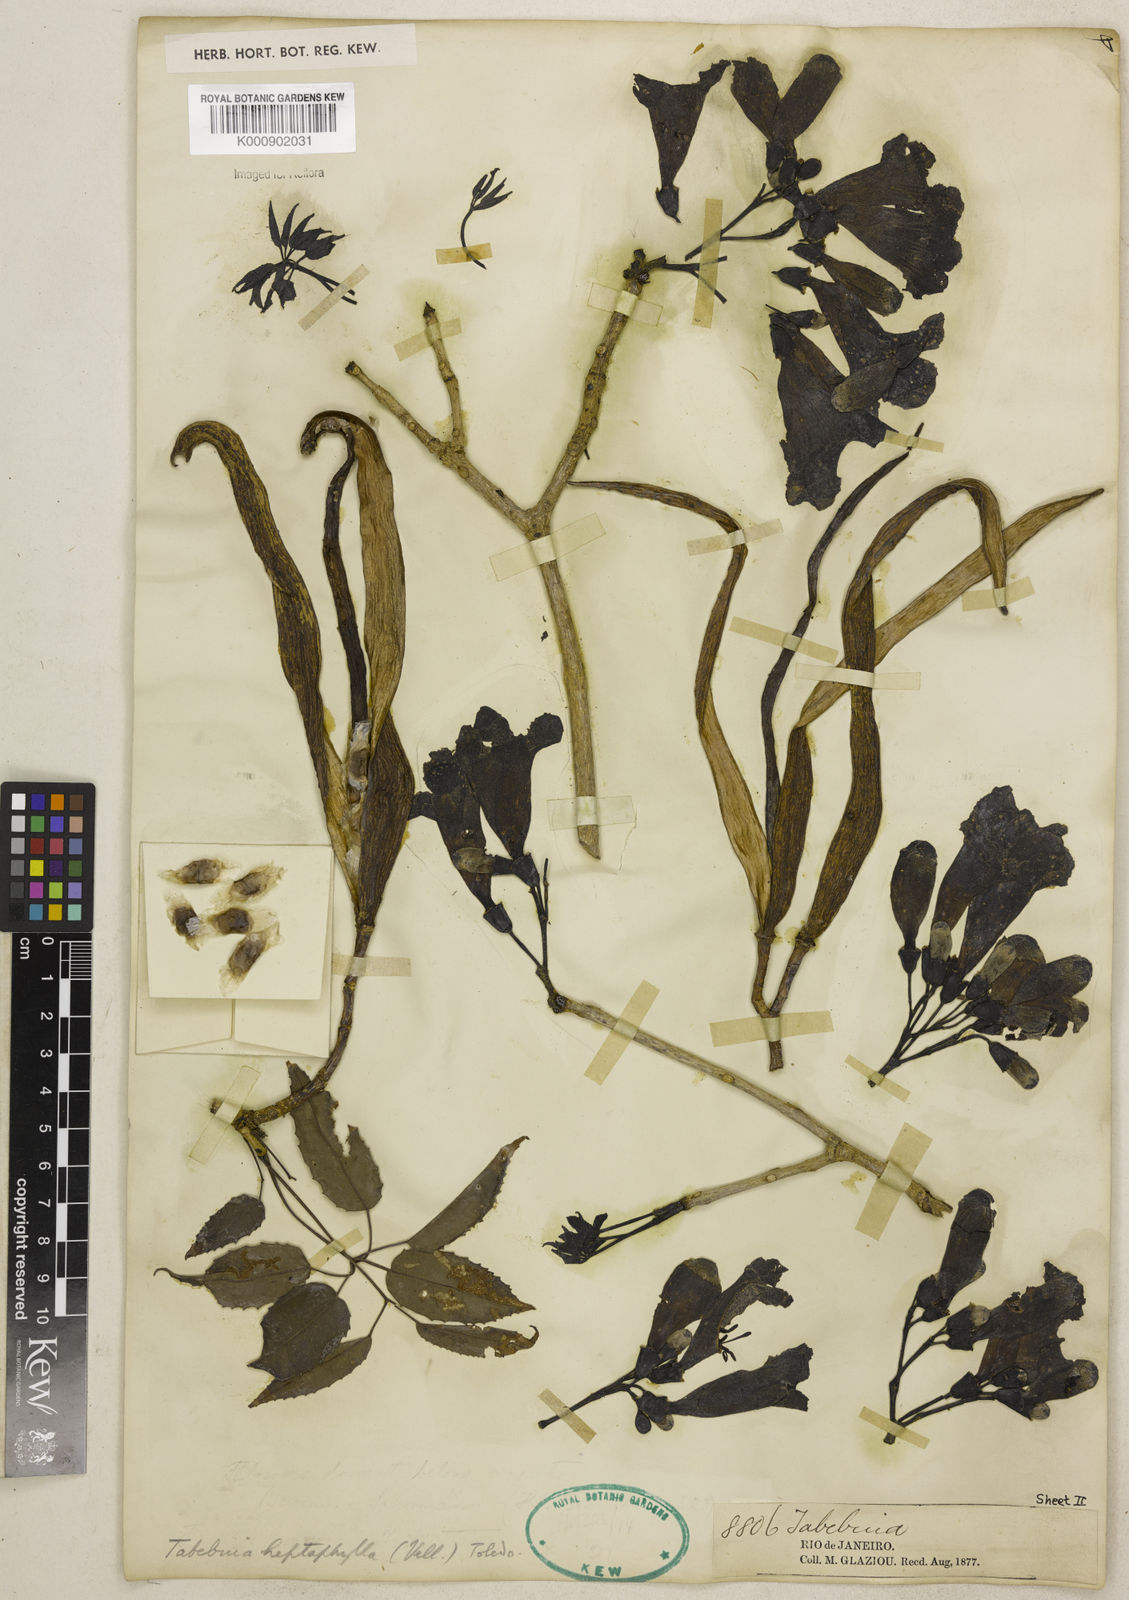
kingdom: Plantae
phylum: Tracheophyta
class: Magnoliopsida
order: Lamiales
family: Bignoniaceae
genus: Handroanthus
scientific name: Handroanthus heptaphyllus
